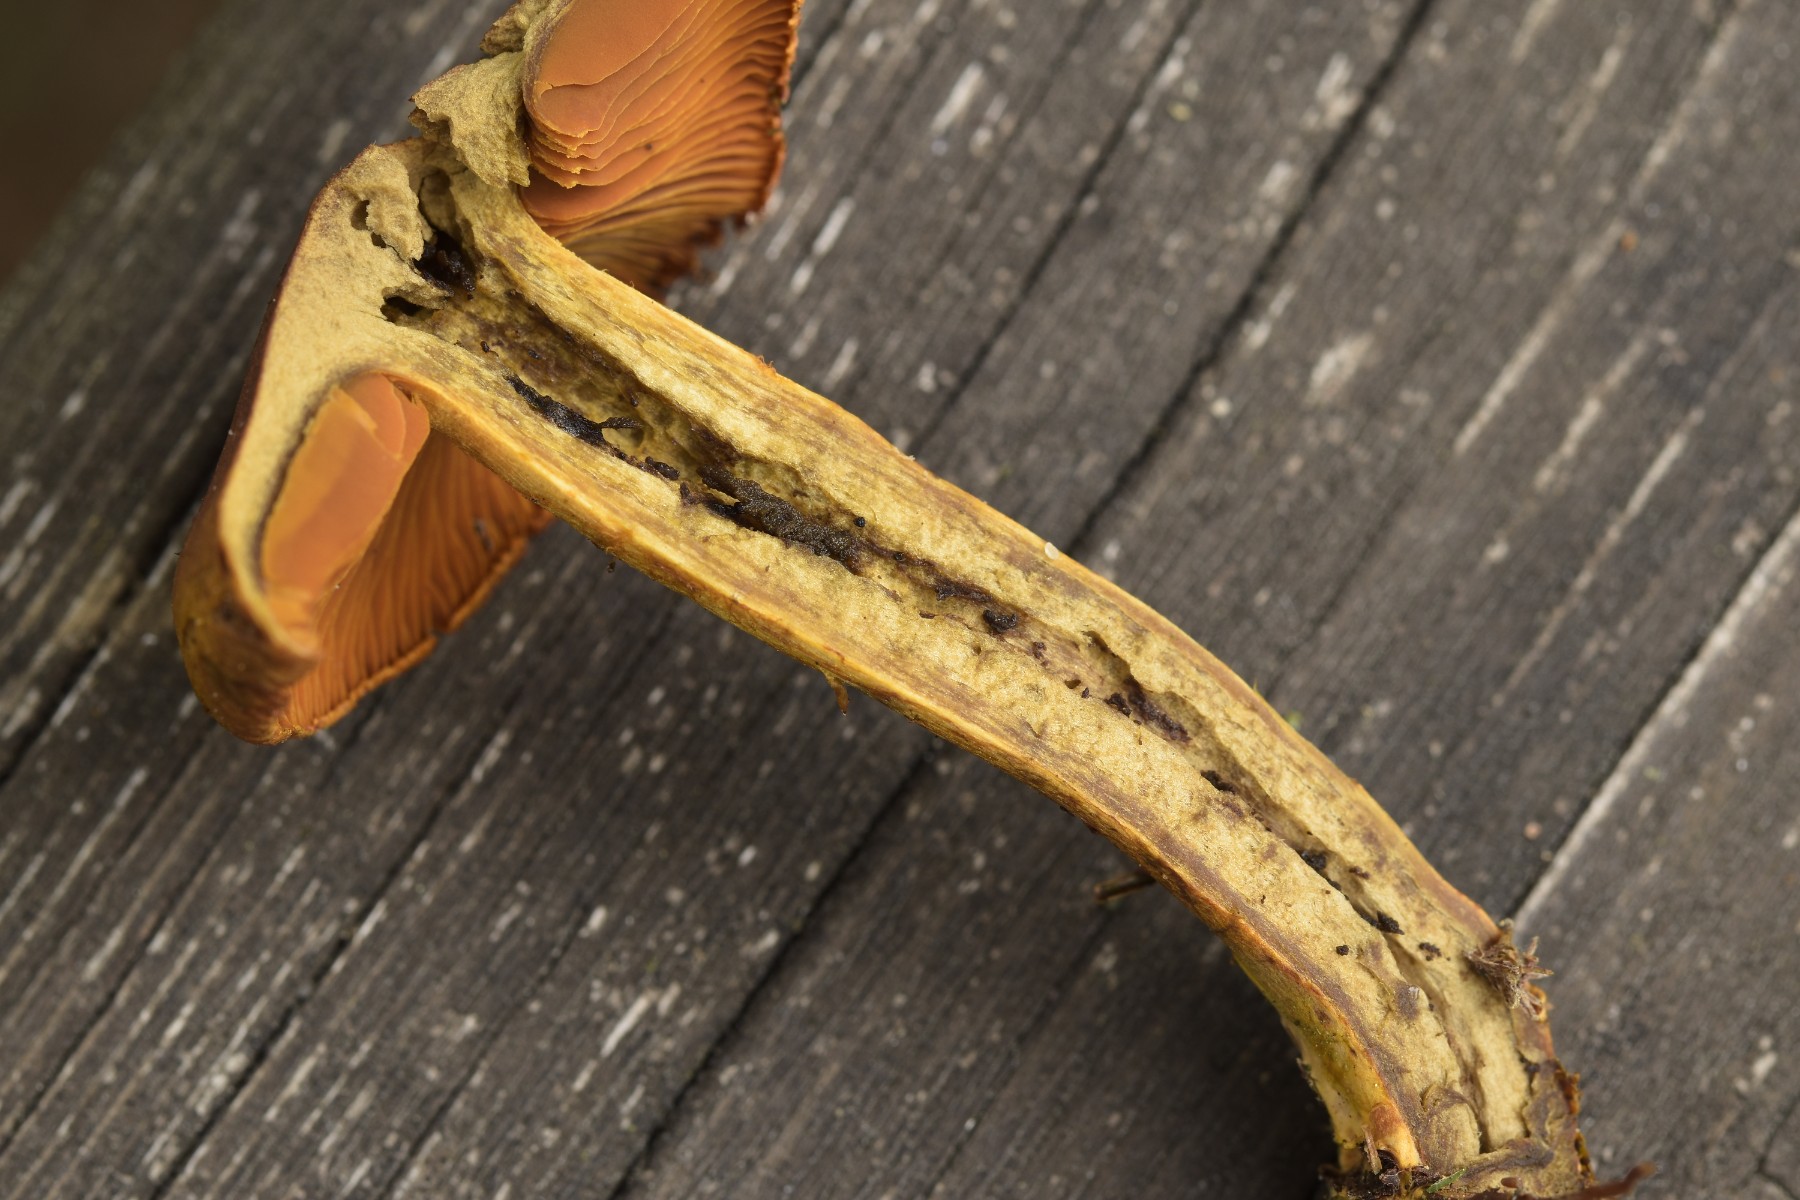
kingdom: Fungi
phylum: Basidiomycota
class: Agaricomycetes
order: Agaricales
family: Cortinariaceae
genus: Cortinarius
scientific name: Cortinarius malicorius
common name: grønkødet slørhat
